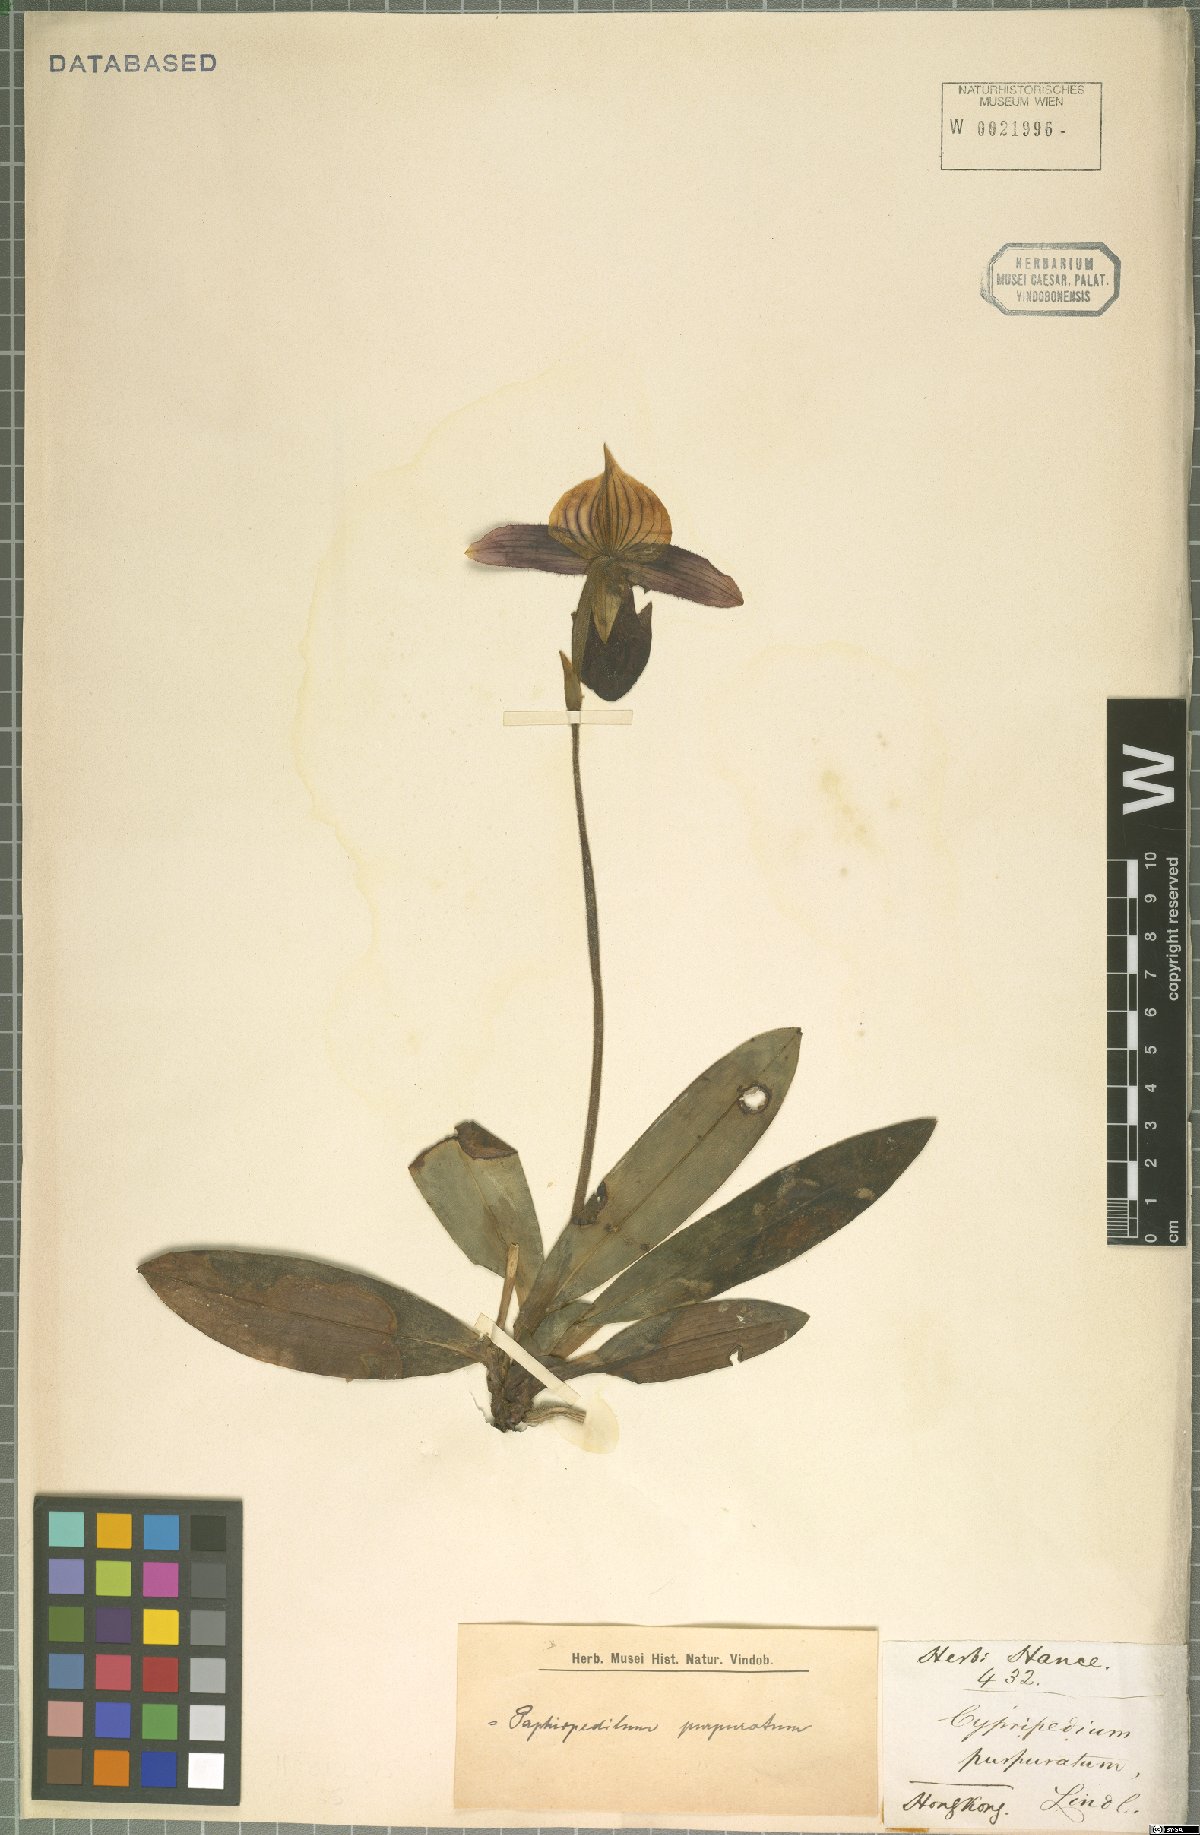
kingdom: Plantae
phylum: Tracheophyta
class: Liliopsida
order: Asparagales
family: Orchidaceae
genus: Paphiopedilum
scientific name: Paphiopedilum purpuratum
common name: Purple paphiopedilum
